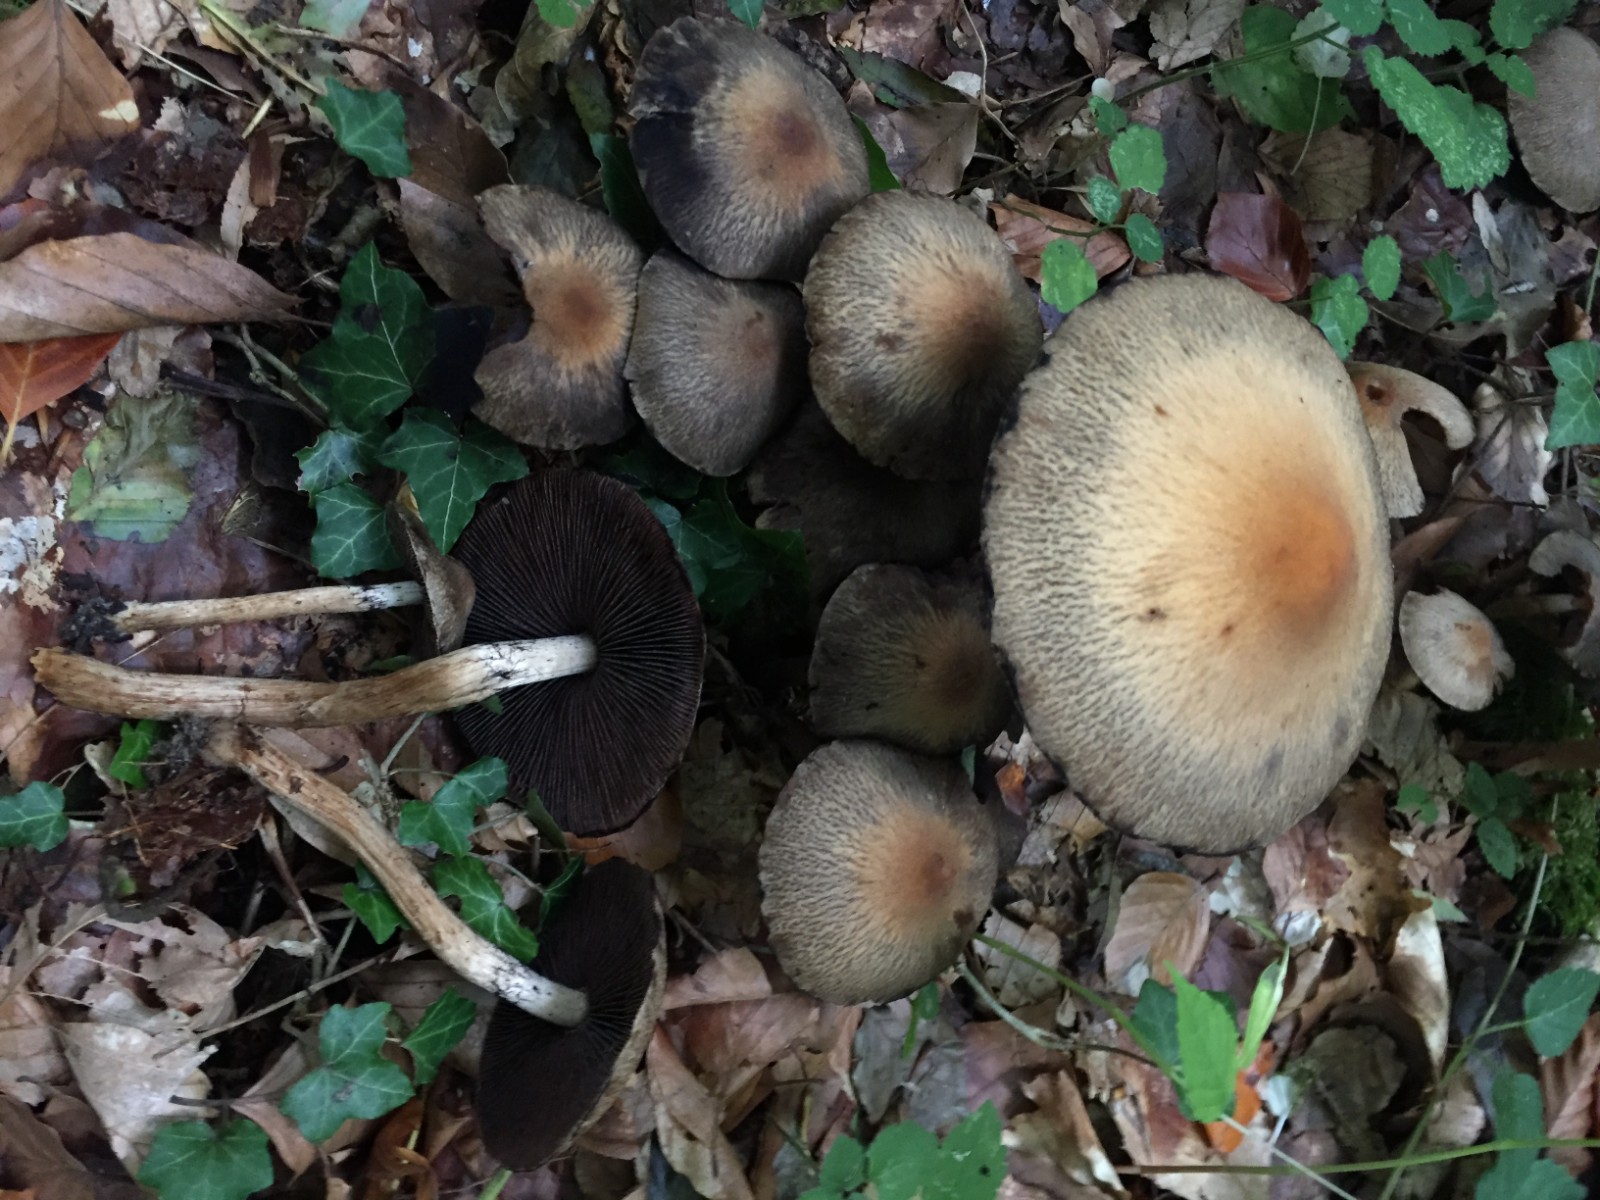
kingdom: Fungi
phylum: Basidiomycota
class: Agaricomycetes
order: Agaricales
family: Psathyrellaceae
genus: Lacrymaria
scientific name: Lacrymaria lacrymabunda
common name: grædende mørkhat
